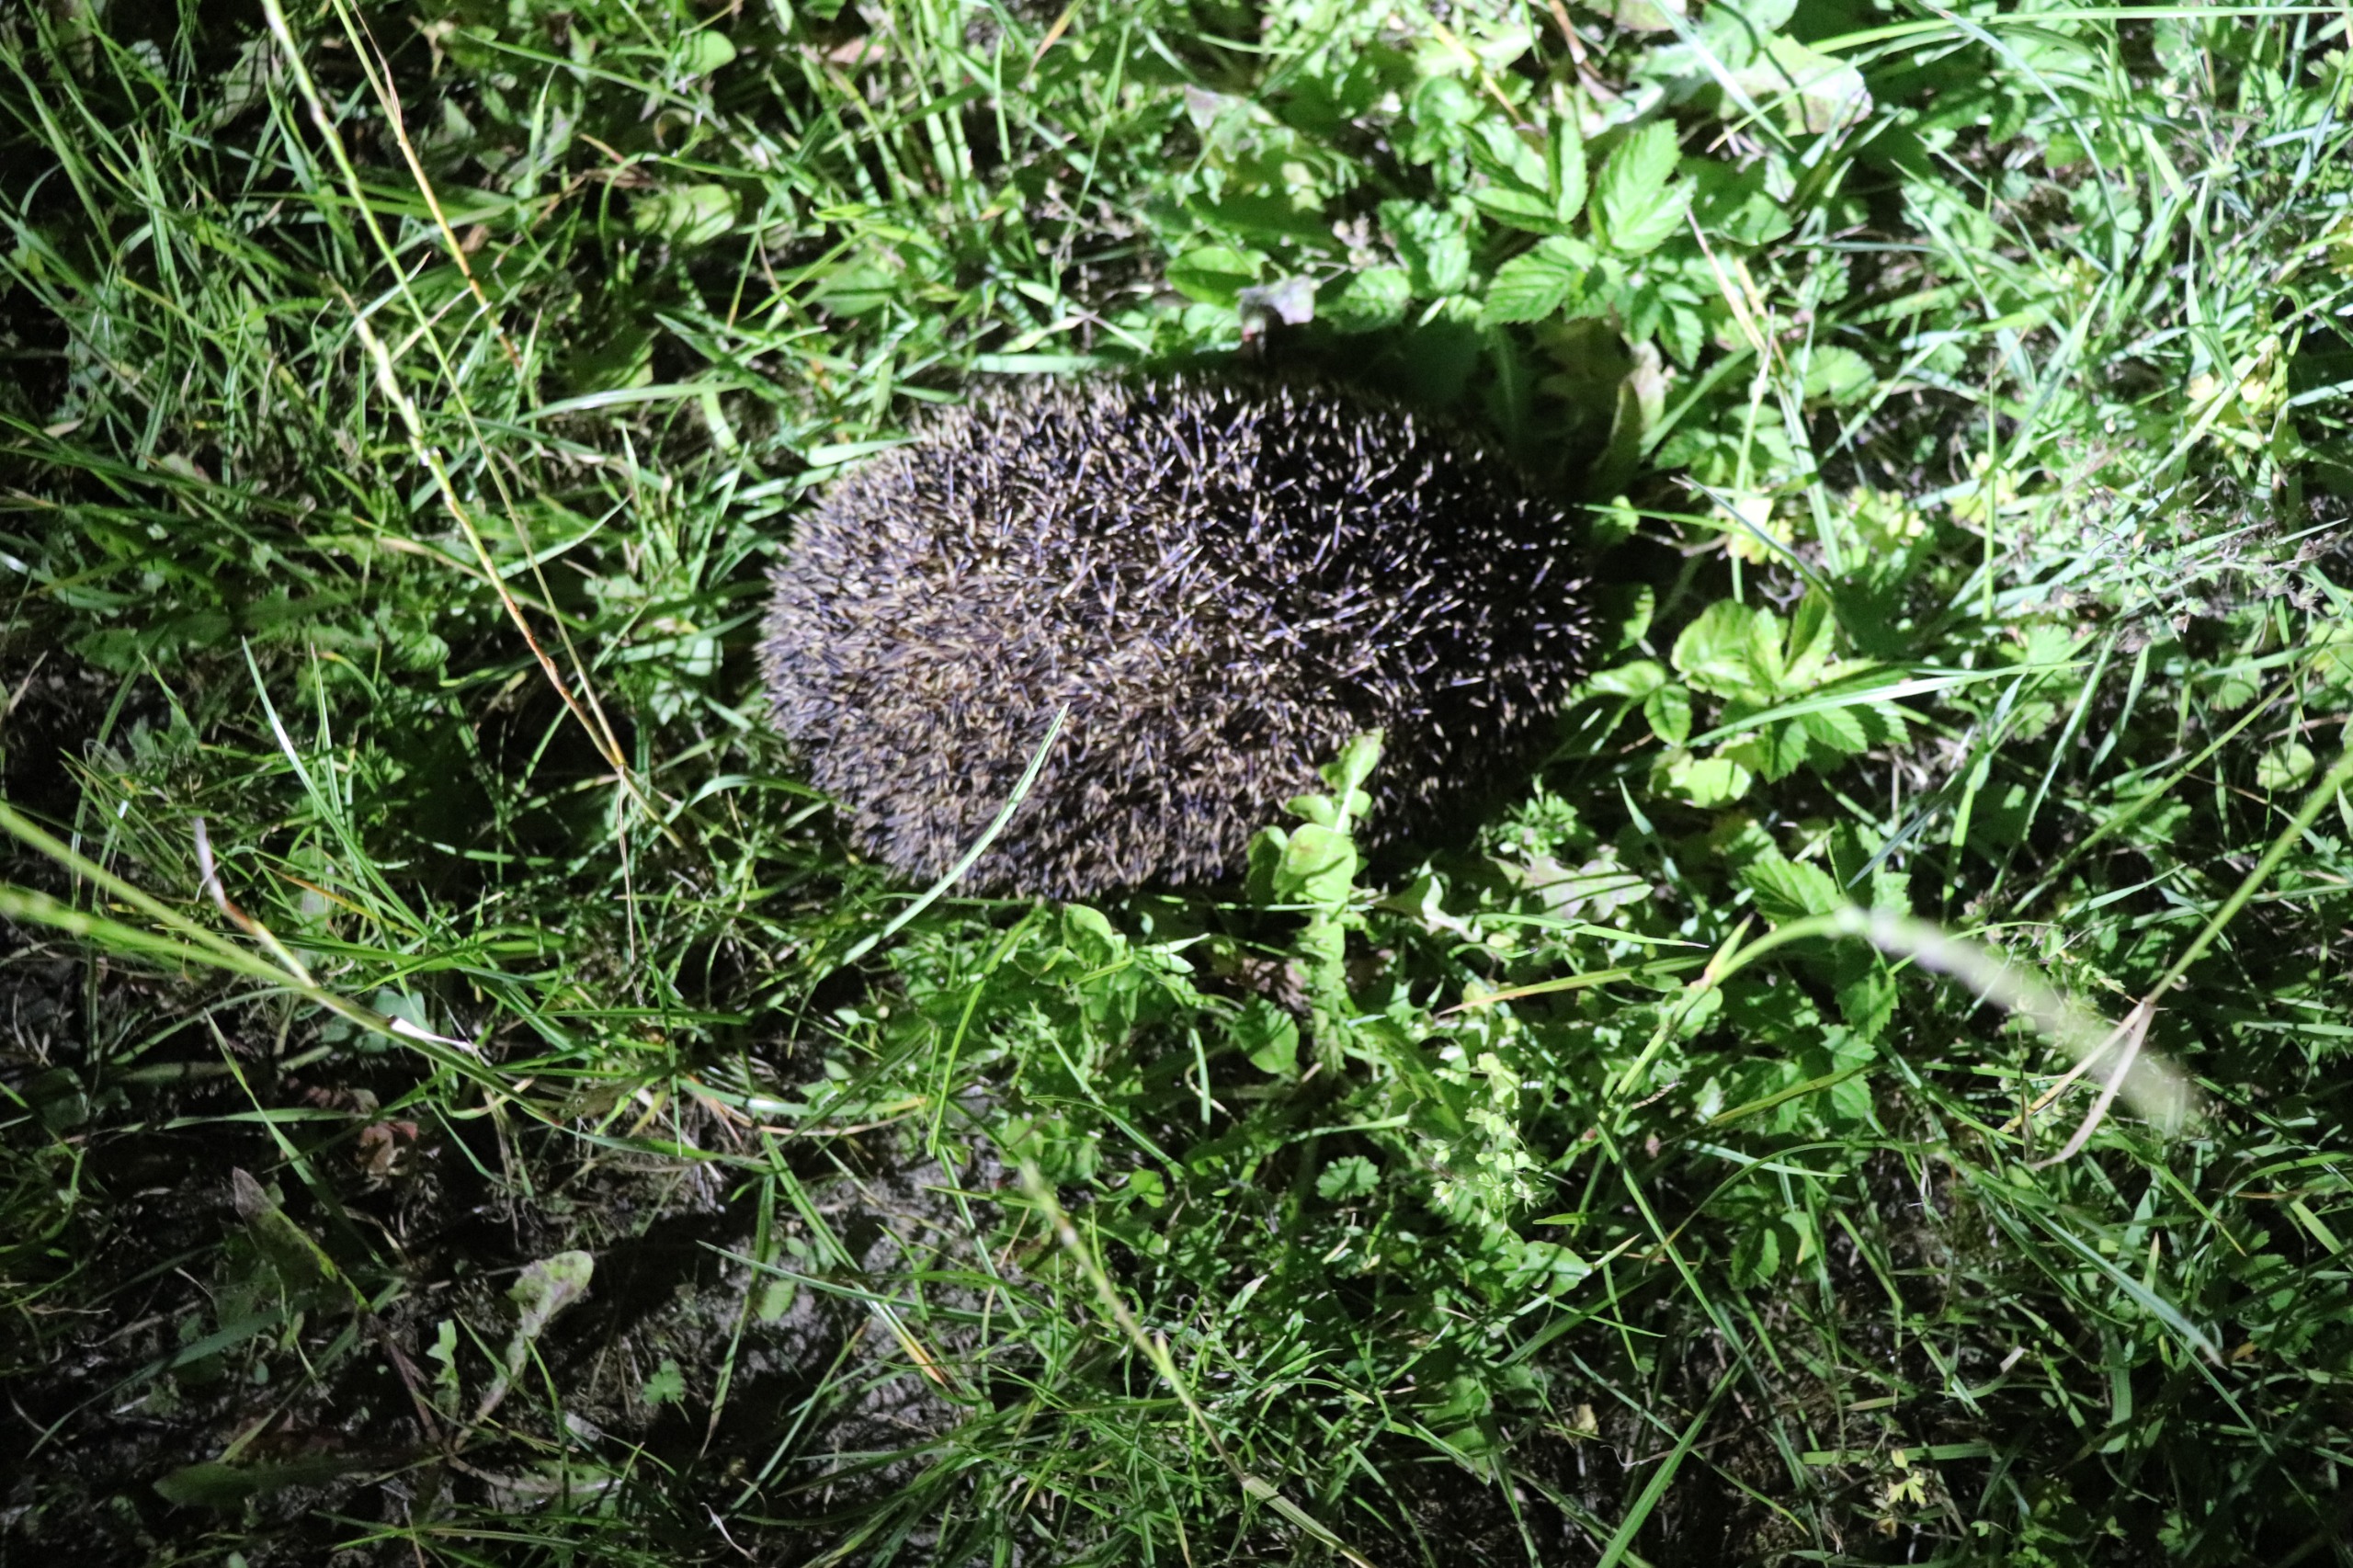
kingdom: Animalia
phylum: Chordata
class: Mammalia
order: Erinaceomorpha
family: Erinaceidae
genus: Erinaceus
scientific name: Erinaceus europaeus
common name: Pindsvin
